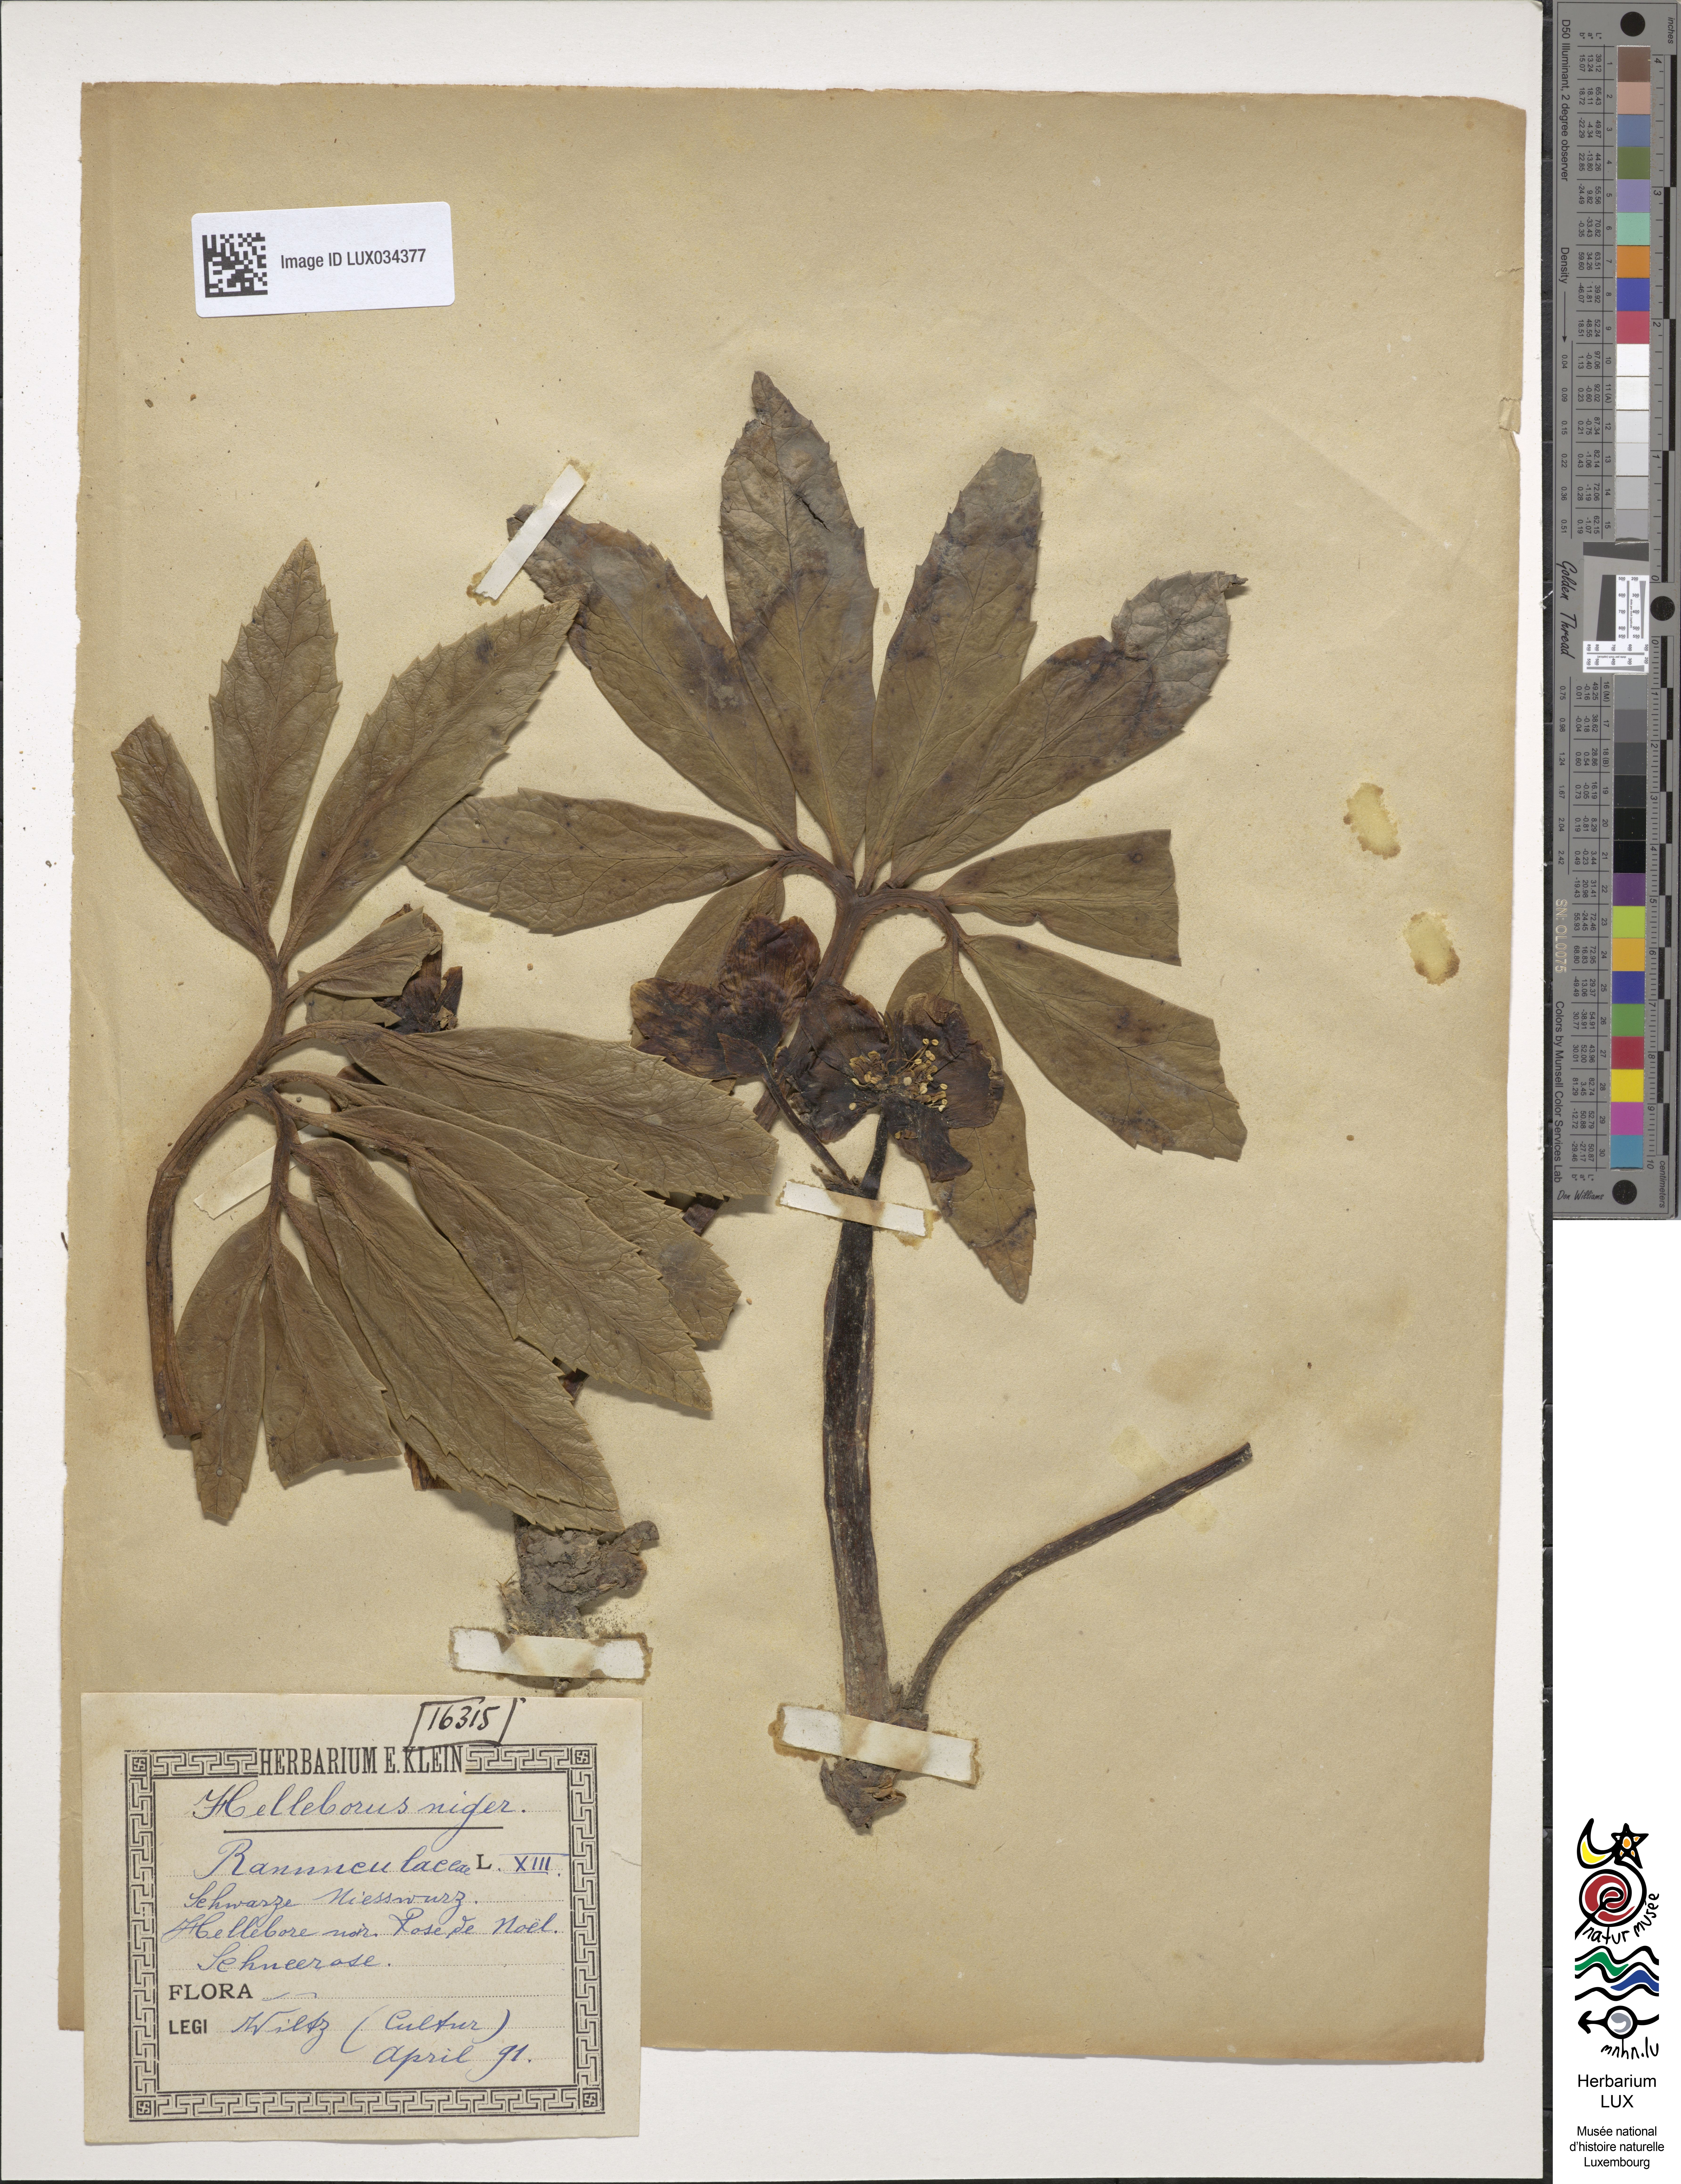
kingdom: Plantae
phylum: Tracheophyta
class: Magnoliopsida
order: Ranunculales
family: Ranunculaceae
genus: Helleborus
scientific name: Helleborus niger
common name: Black hellebore
